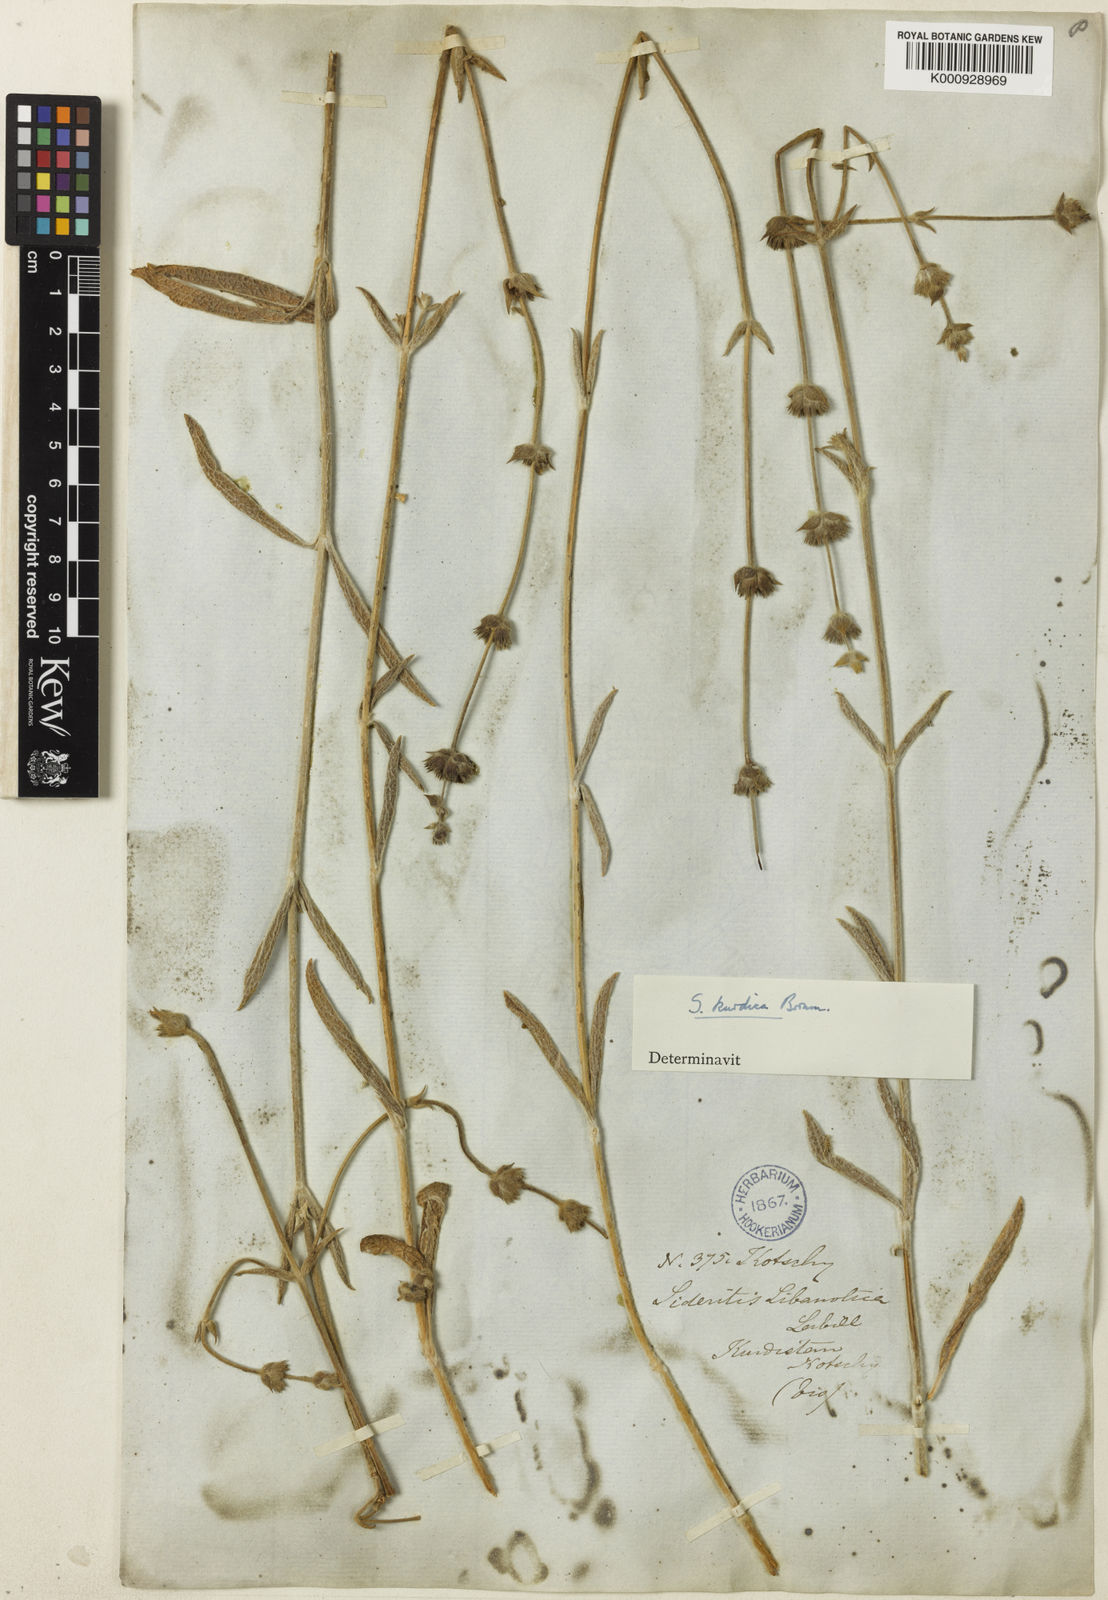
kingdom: Plantae
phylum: Tracheophyta
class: Magnoliopsida
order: Lamiales
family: Lamiaceae
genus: Sideritis
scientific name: Sideritis pisidica
